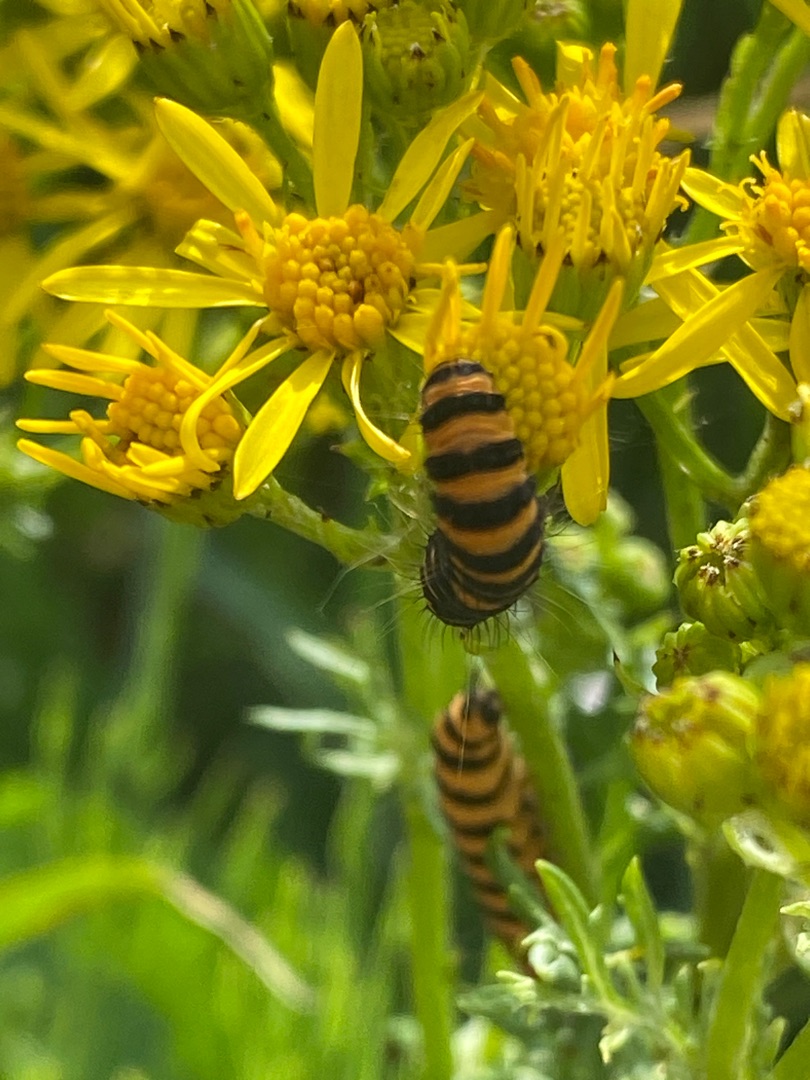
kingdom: Animalia
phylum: Arthropoda
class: Insecta
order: Lepidoptera
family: Erebidae
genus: Tyria
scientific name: Tyria jacobaeae
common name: Blodplet
